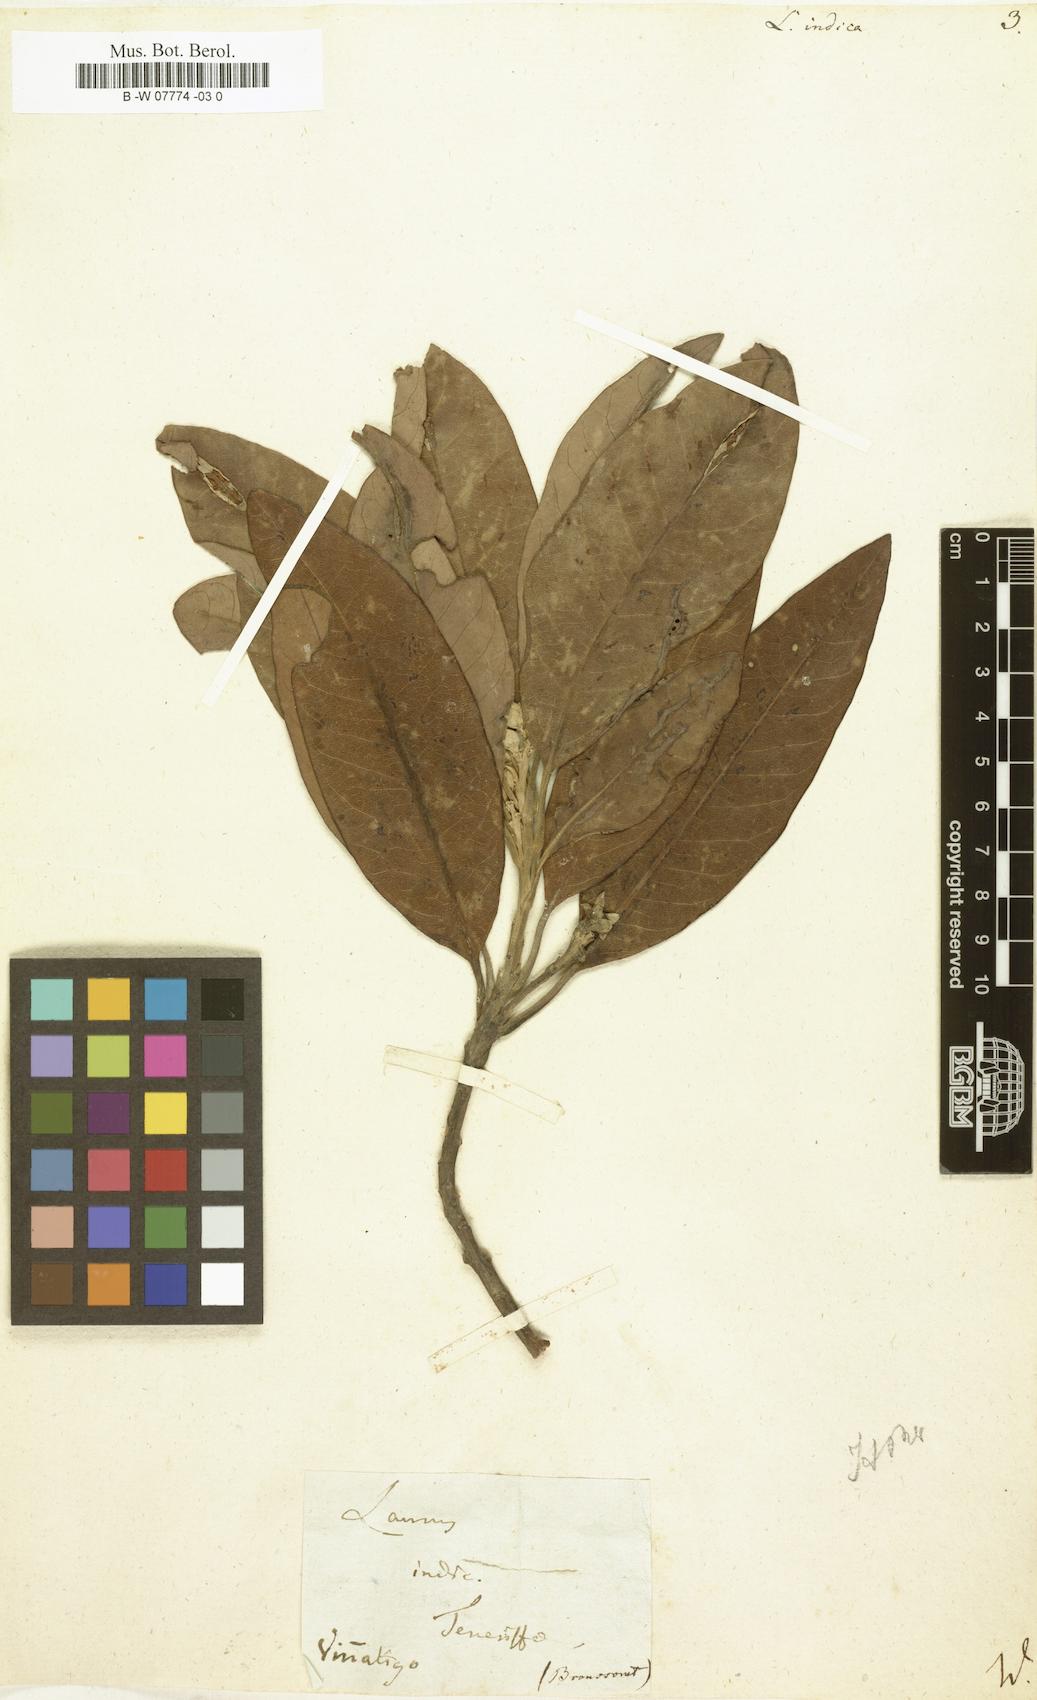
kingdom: Plantae
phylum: Tracheophyta
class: Magnoliopsida
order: Laurales
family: Lauraceae
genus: Persea
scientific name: Persea indica
